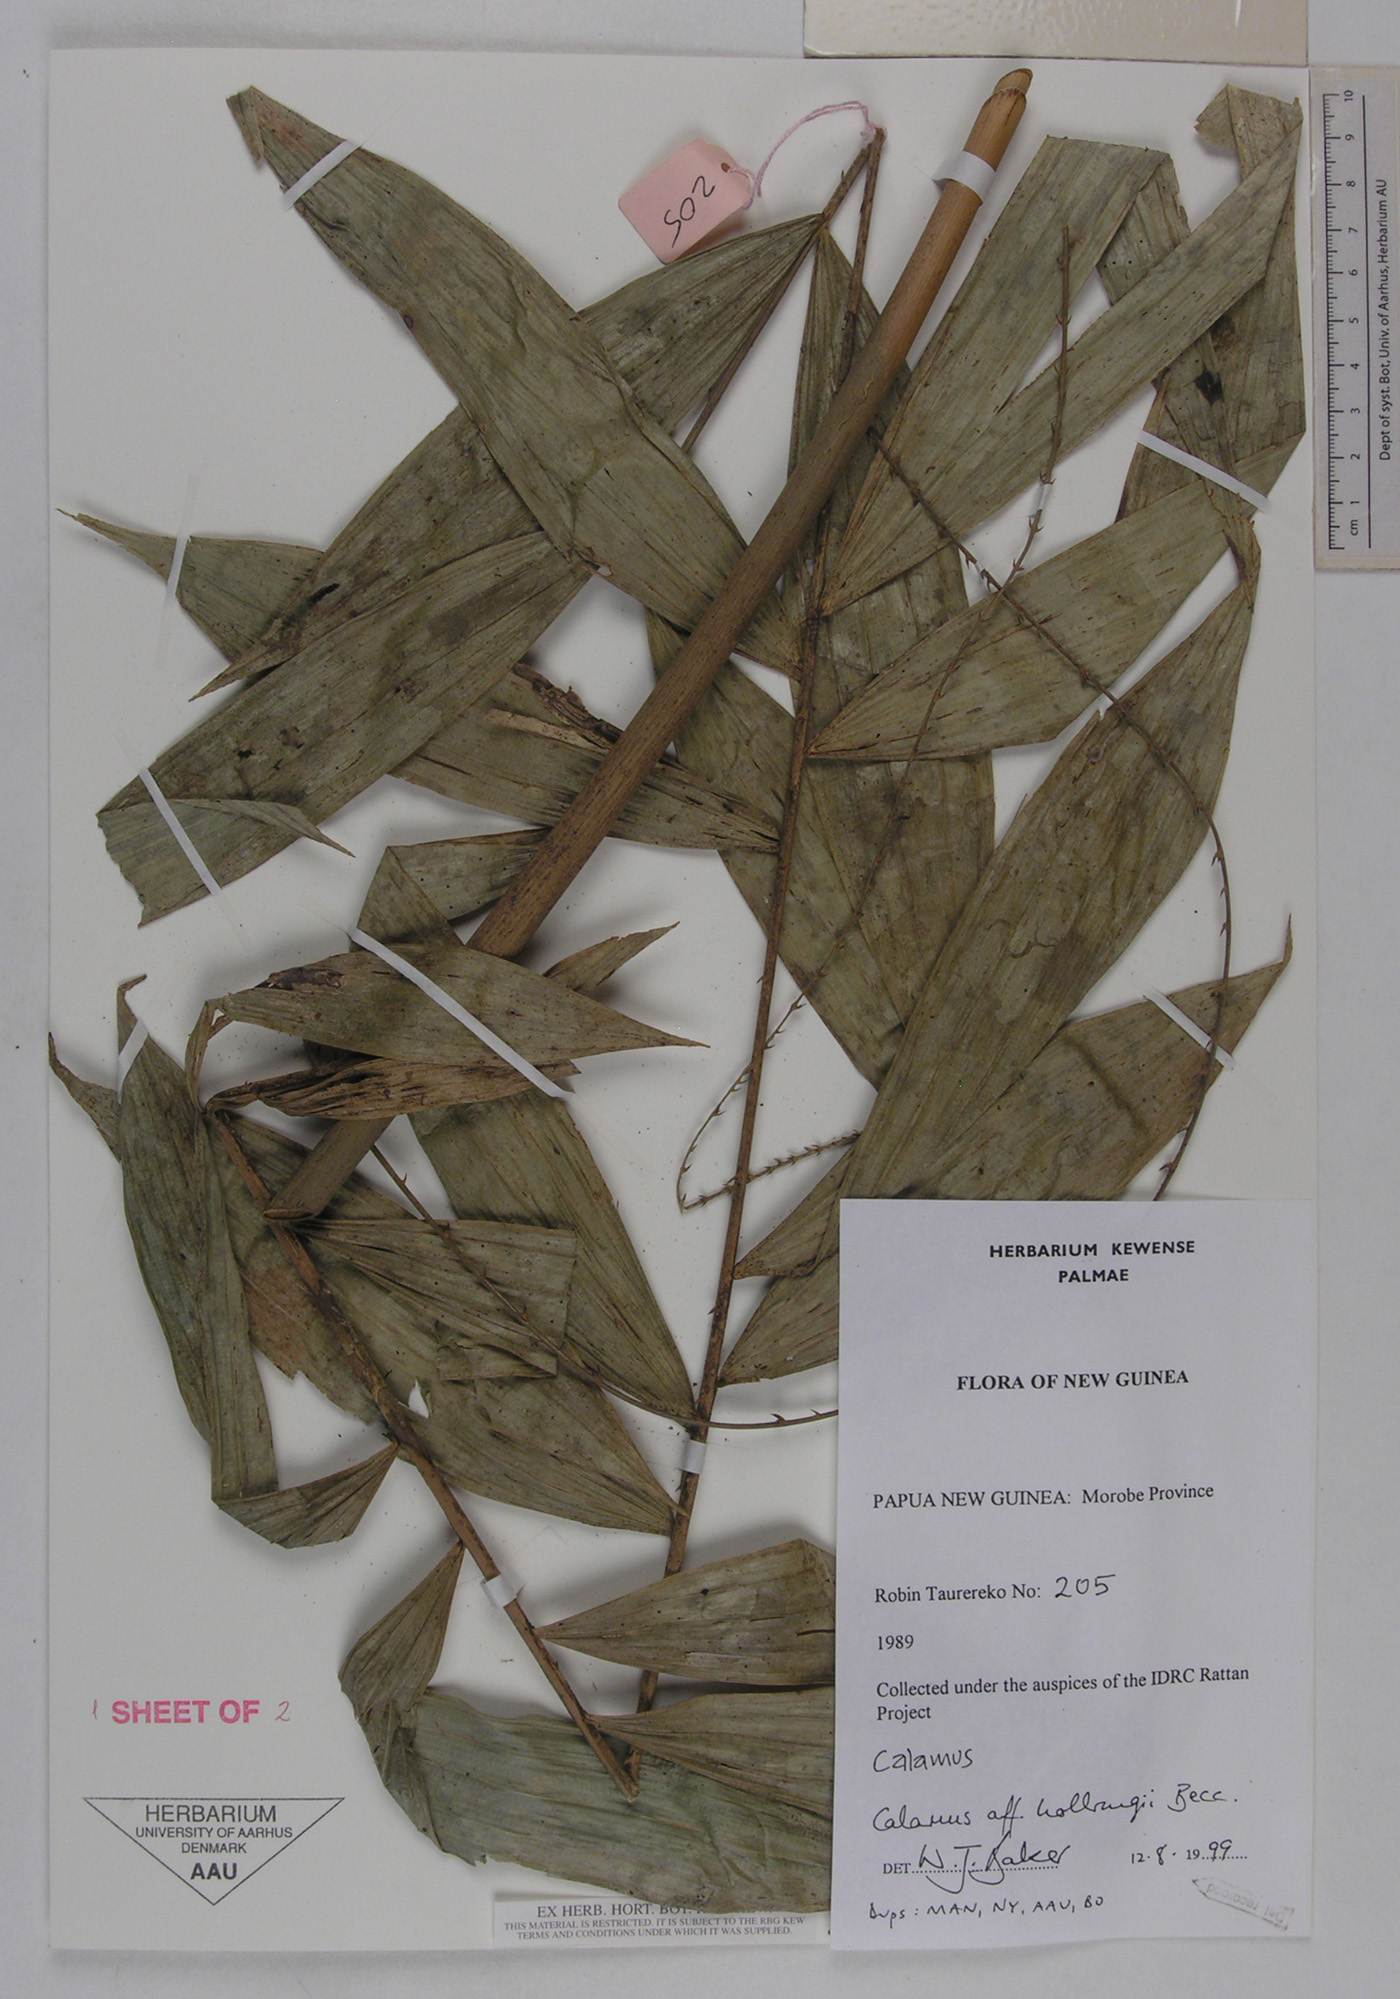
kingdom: Plantae
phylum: Tracheophyta
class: Liliopsida
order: Arecales
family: Arecaceae
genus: Calamus
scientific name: Calamus aruensis
